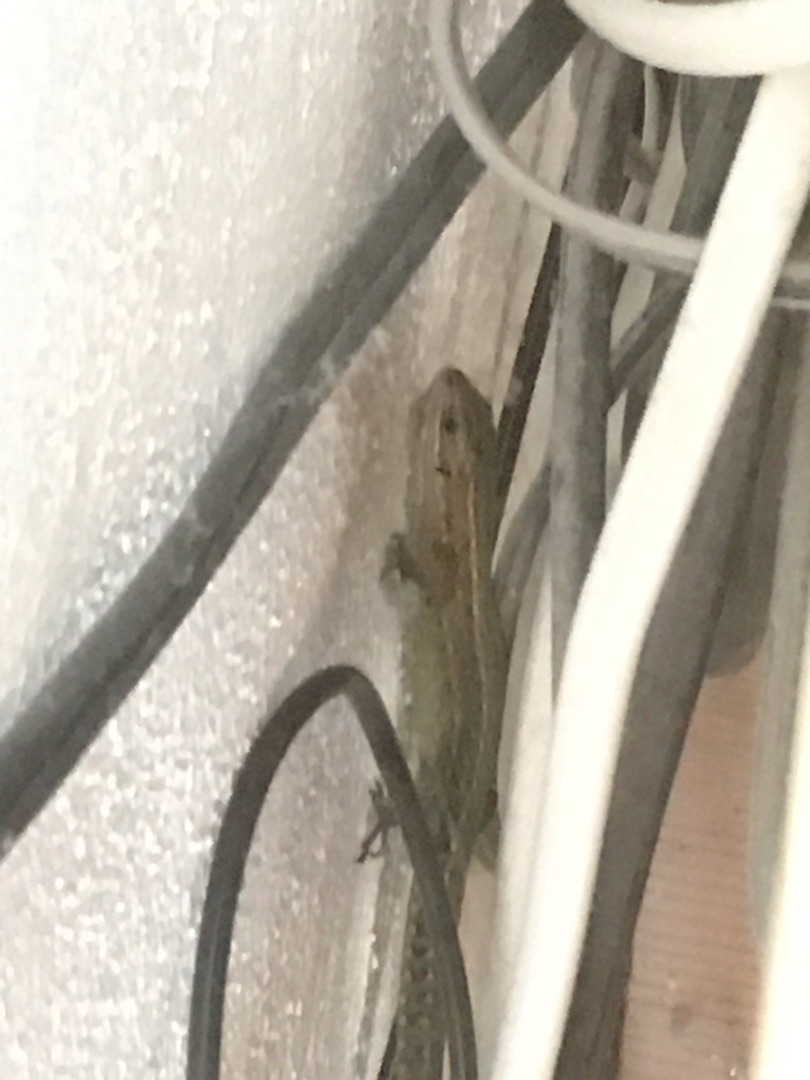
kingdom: Animalia
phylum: Chordata
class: Squamata
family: Lacertidae
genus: Zootoca
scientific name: Zootoca vivipara
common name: Skovfirben
